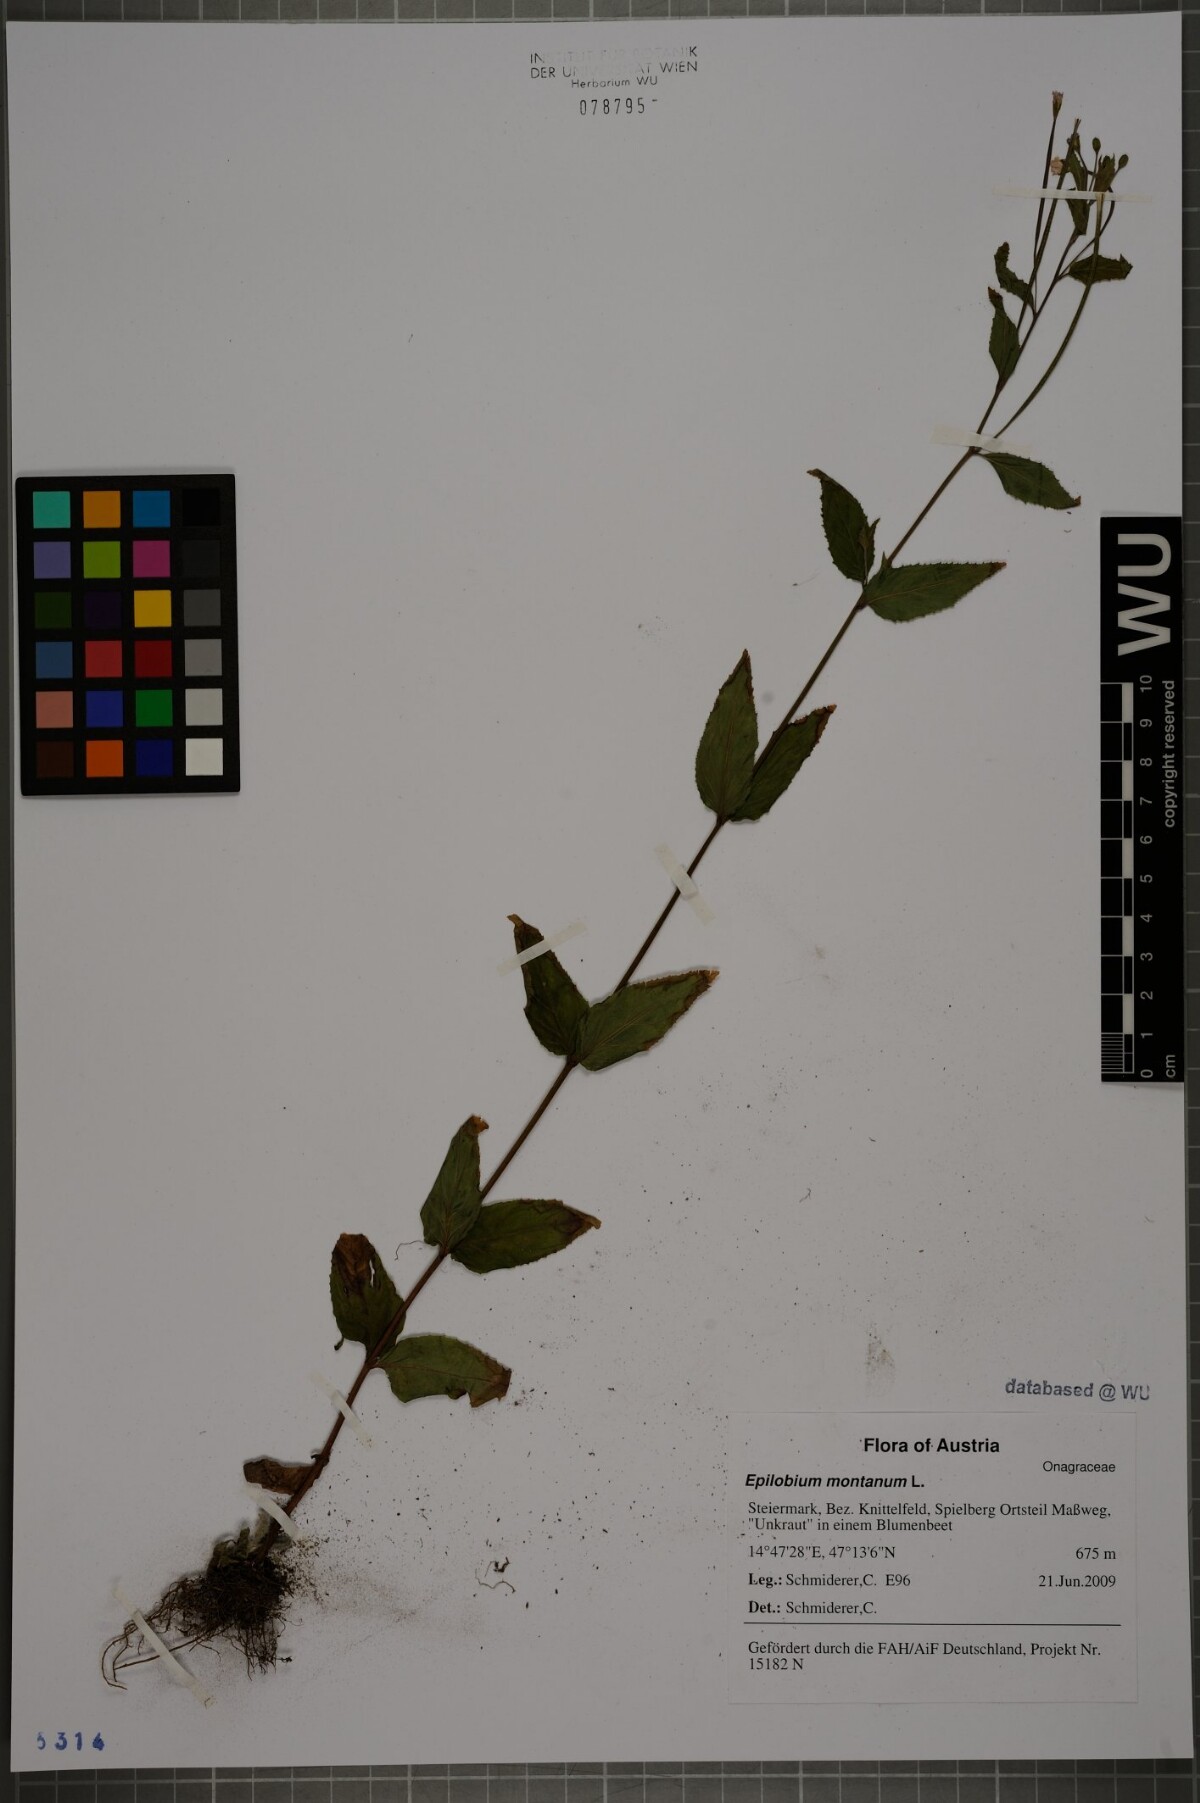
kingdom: Plantae
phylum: Tracheophyta
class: Magnoliopsida
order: Myrtales
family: Onagraceae
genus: Epilobium
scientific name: Epilobium montanum
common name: Broad-leaved willowherb
